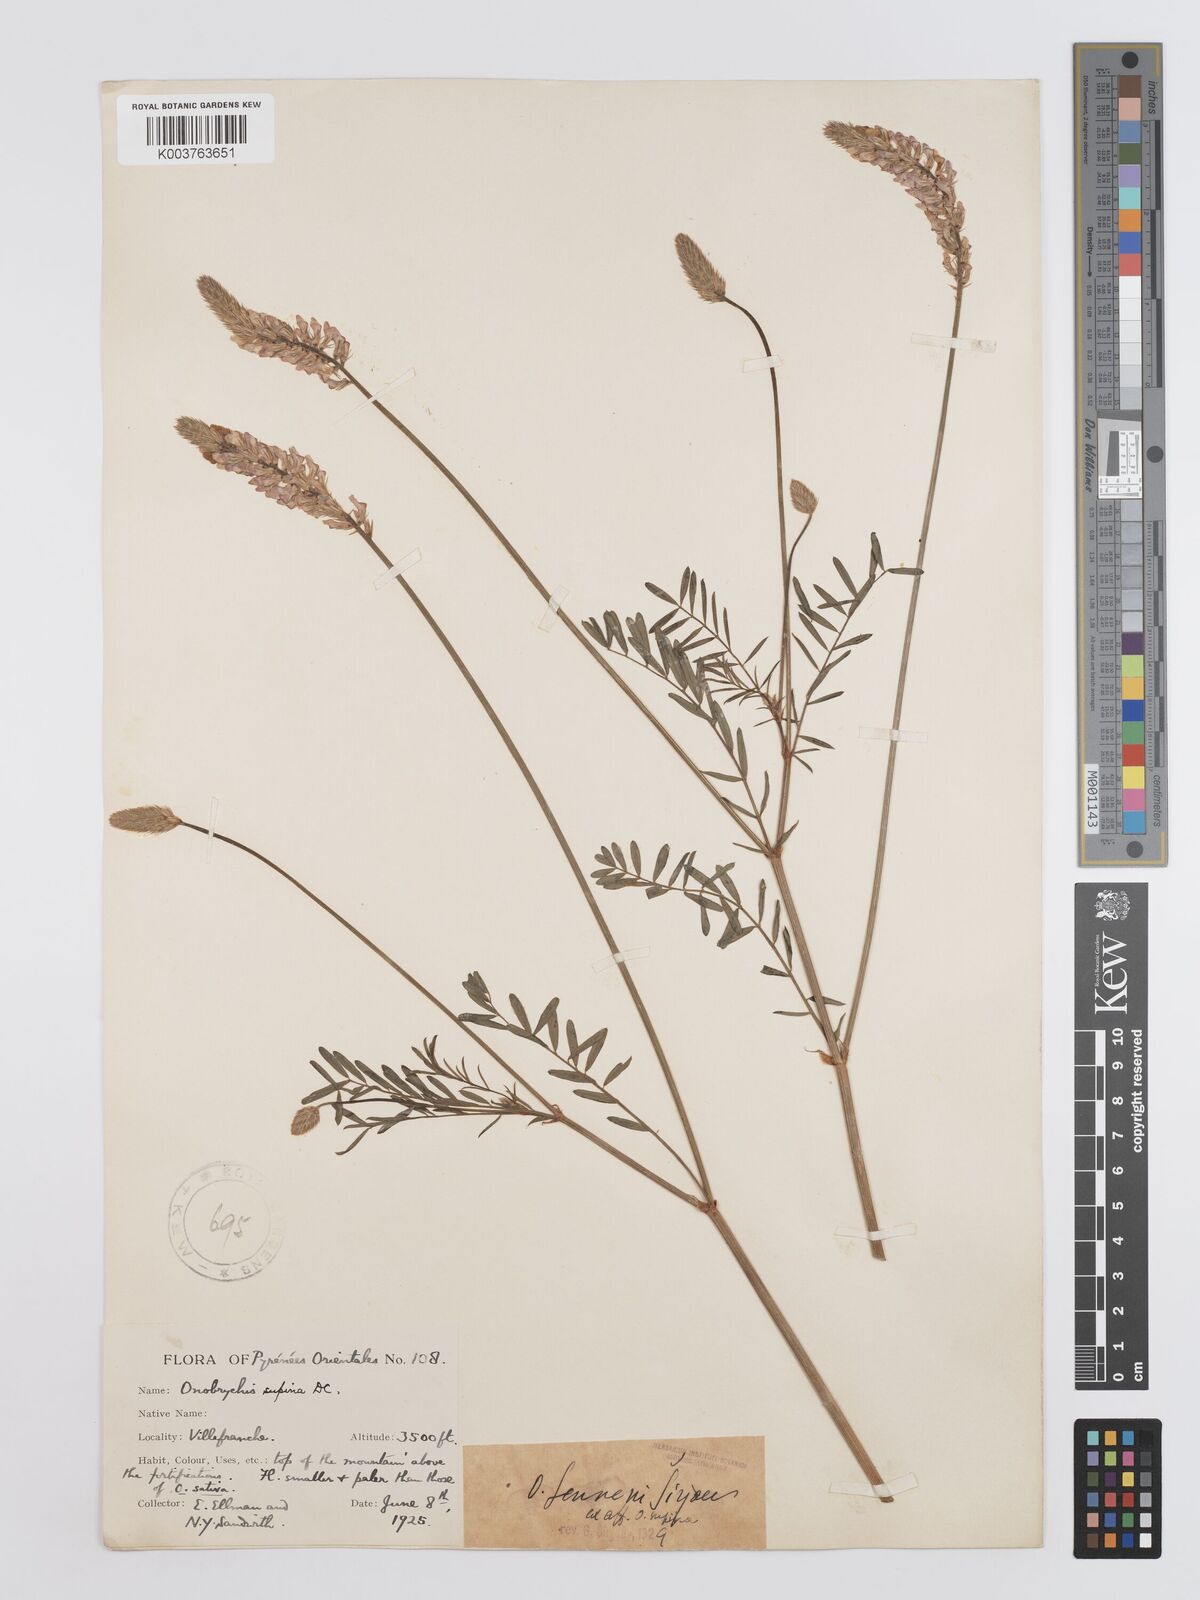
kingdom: Plantae
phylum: Tracheophyta
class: Magnoliopsida
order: Fabales
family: Fabaceae
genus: Onobrychis
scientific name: Onobrychis supina
